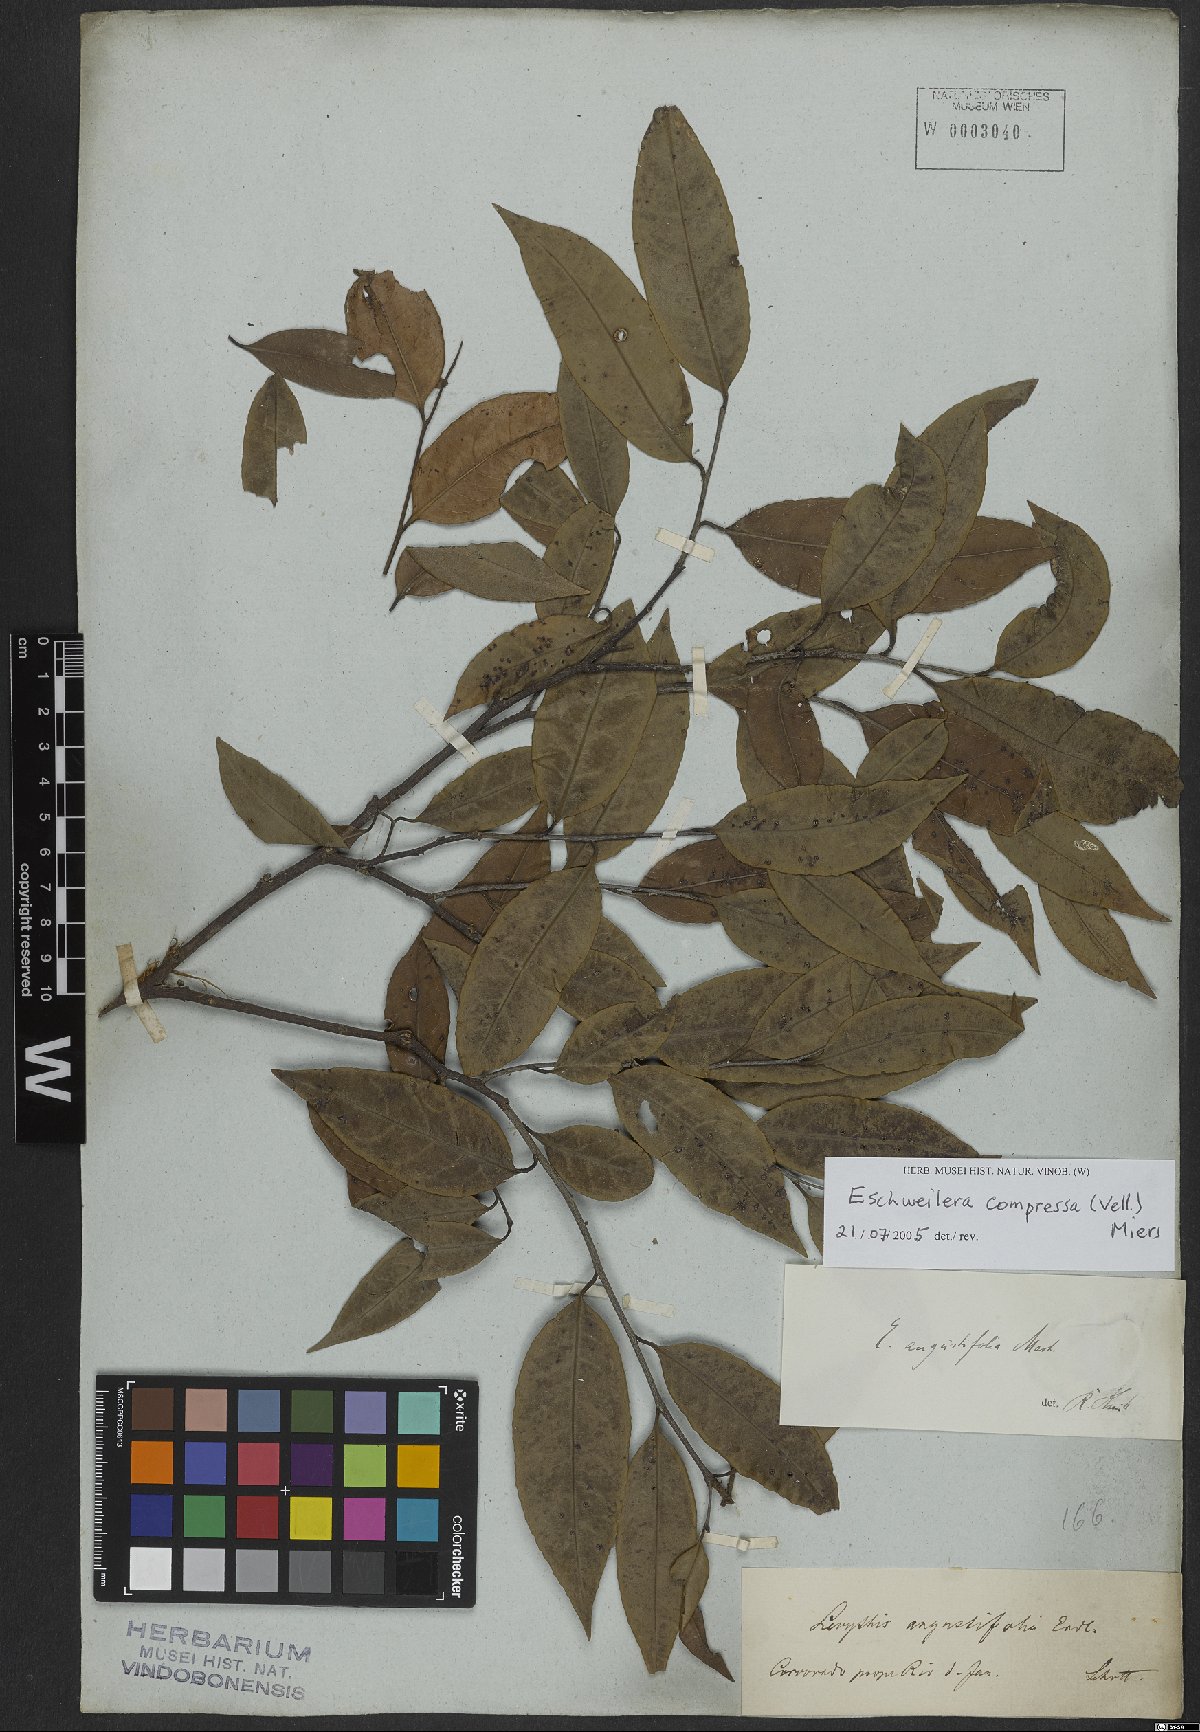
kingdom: Plantae
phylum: Tracheophyta
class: Magnoliopsida
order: Ericales
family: Lecythidaceae
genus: Eschweilera
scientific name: Eschweilera compressa
